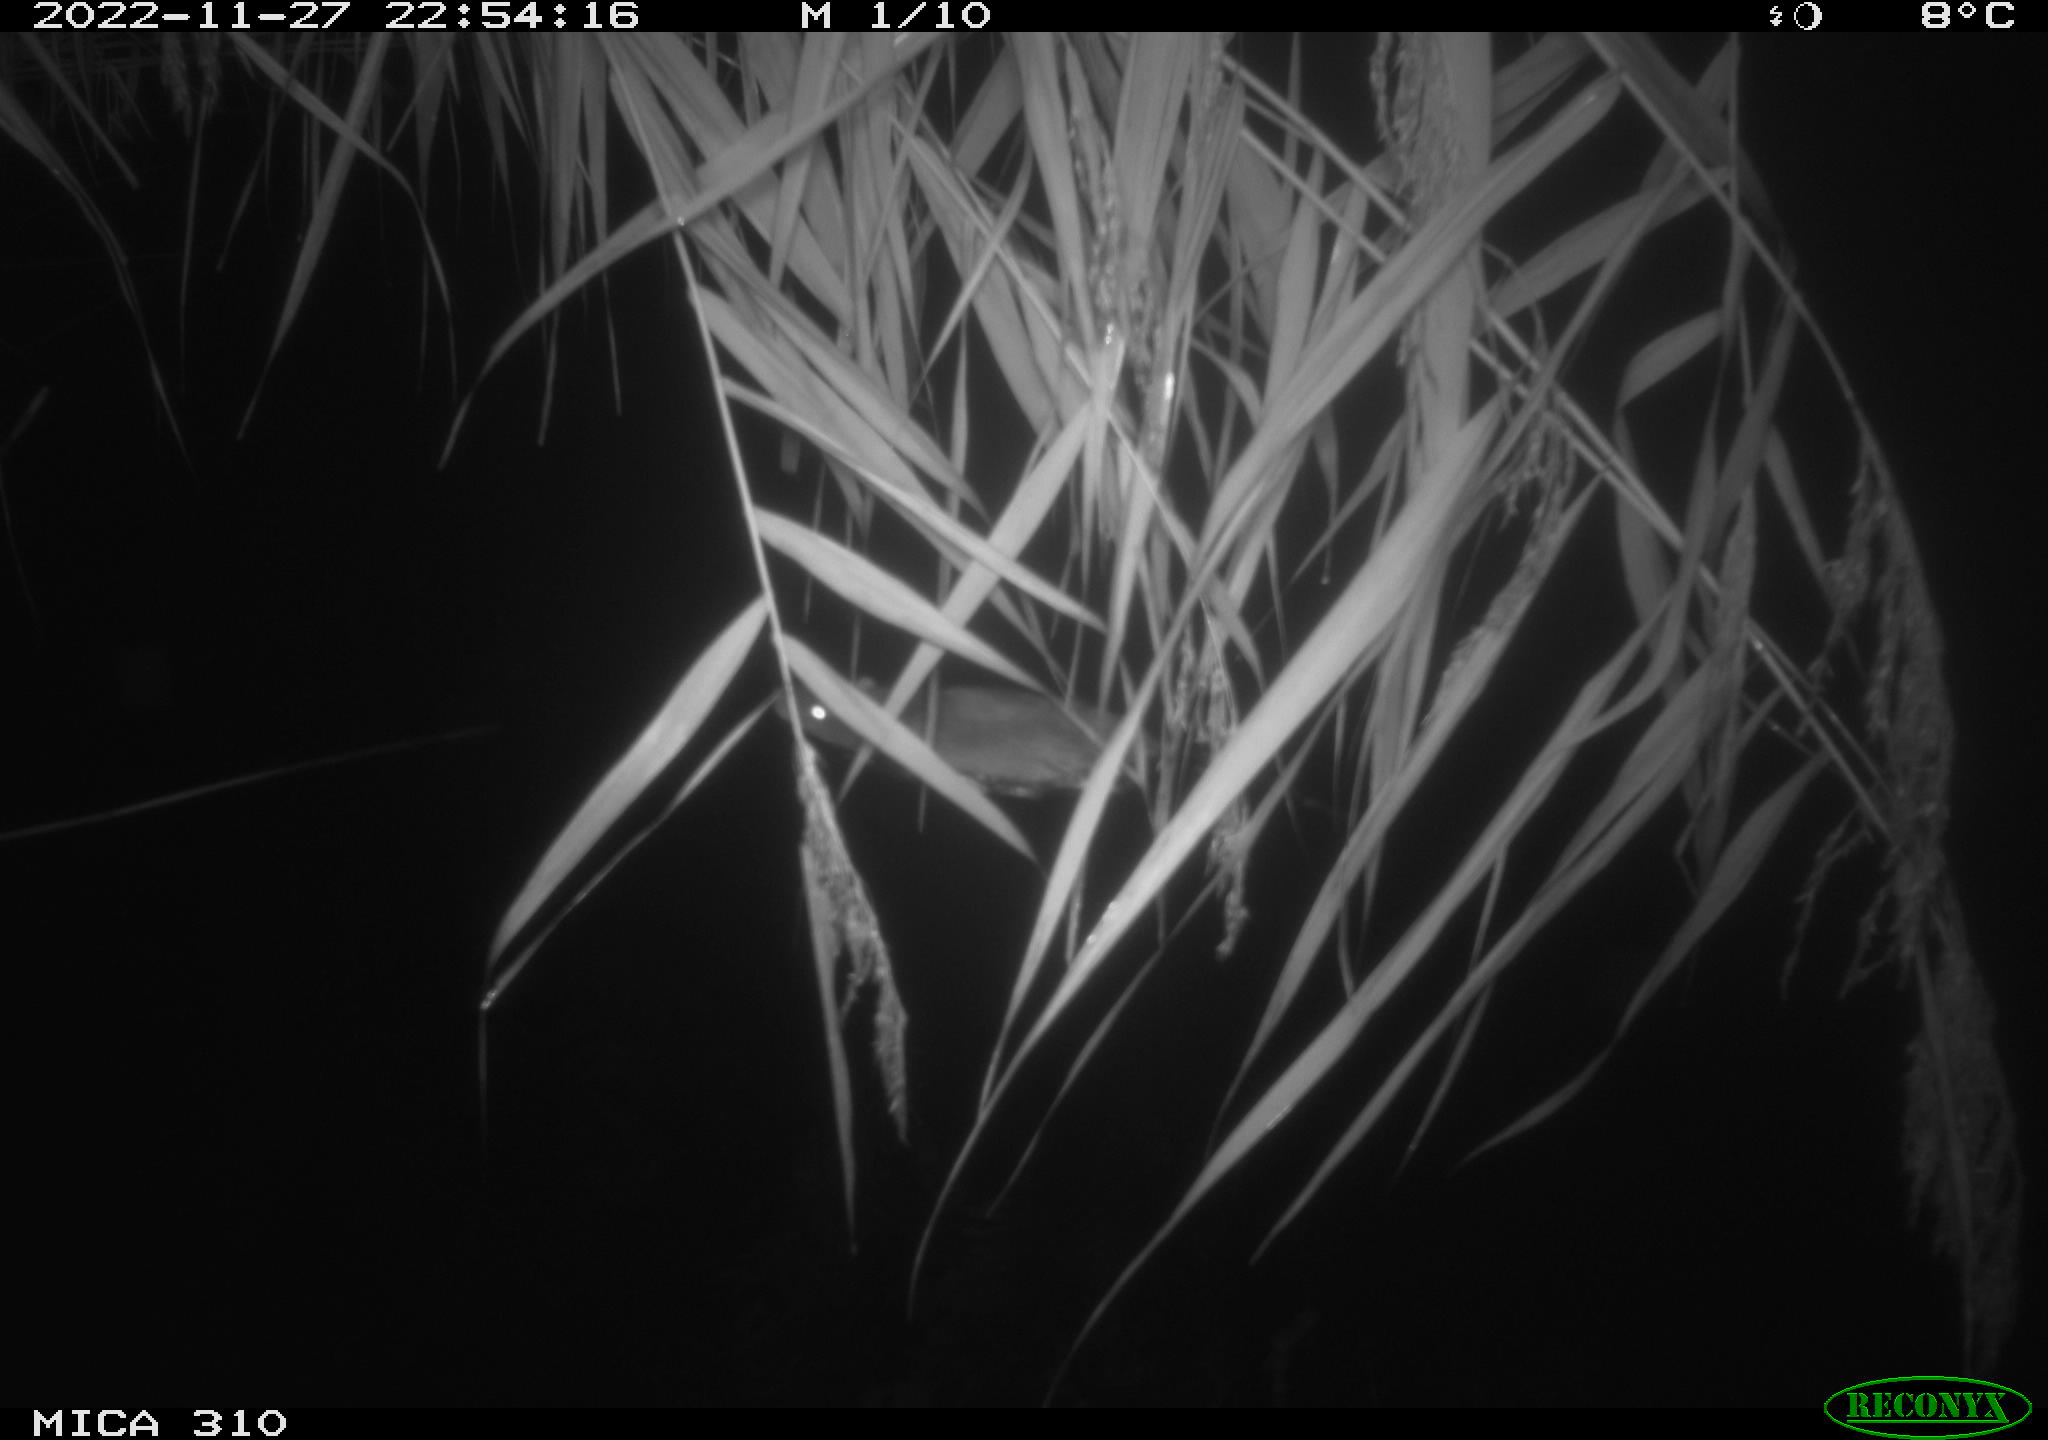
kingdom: Animalia
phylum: Chordata
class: Mammalia
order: Rodentia
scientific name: Rodentia
